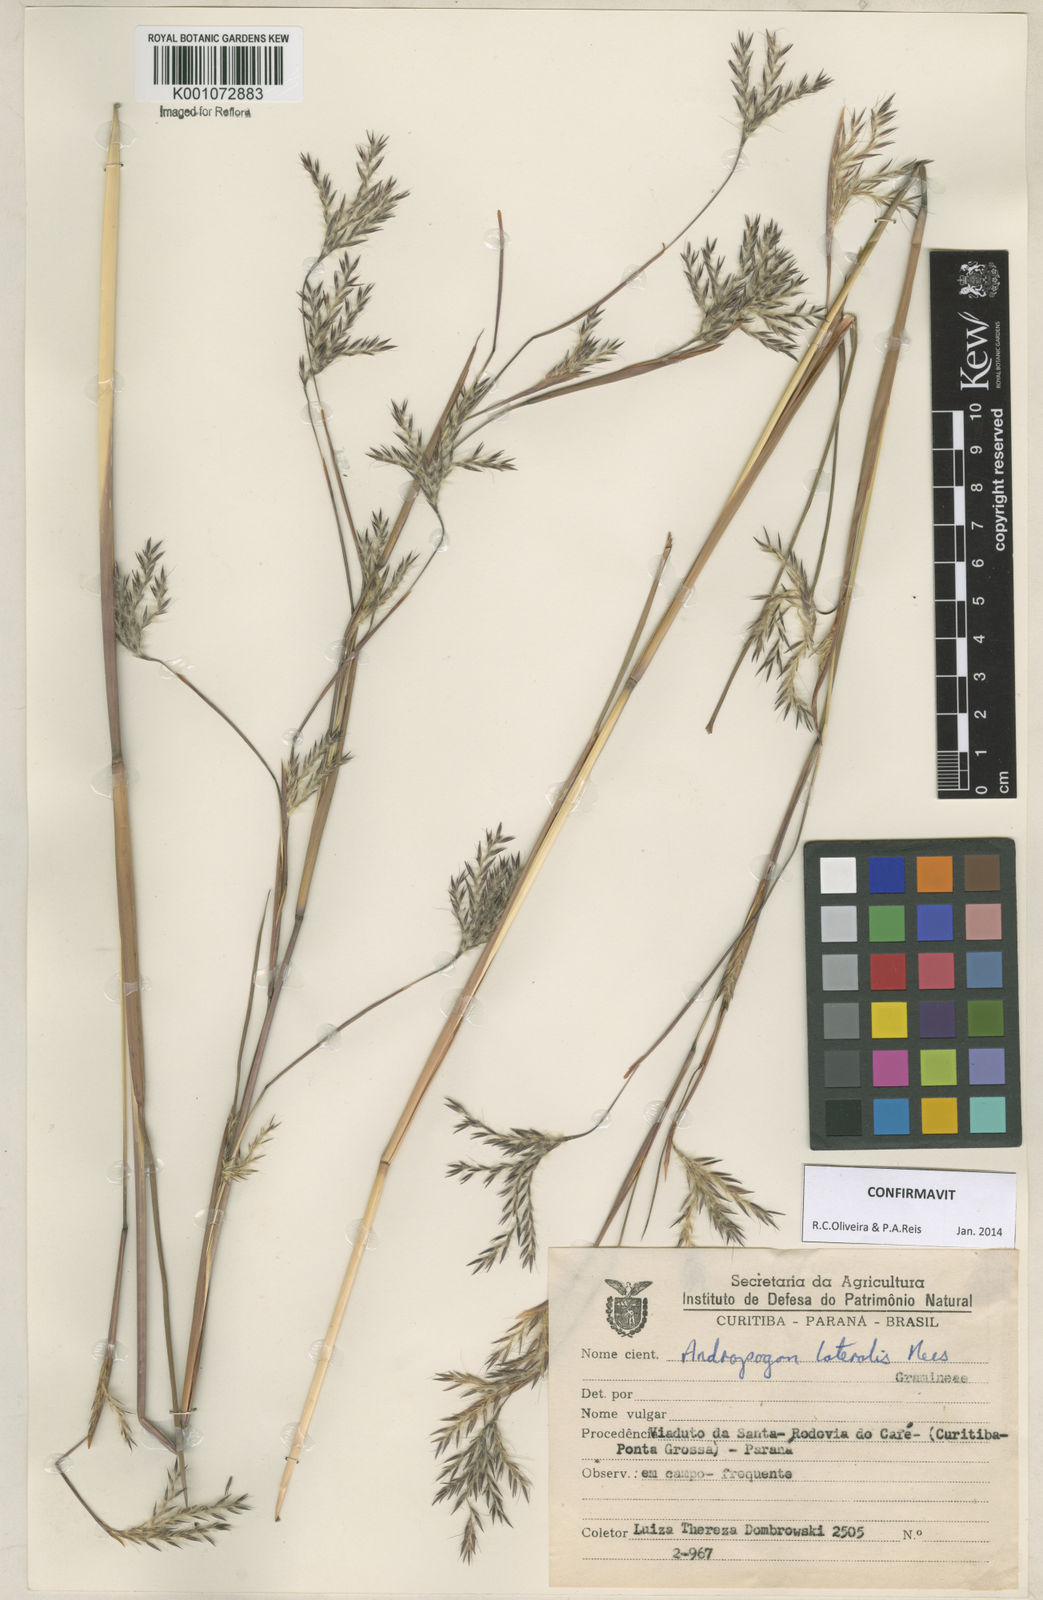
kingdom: Plantae
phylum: Tracheophyta
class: Liliopsida
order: Poales
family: Poaceae
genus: Andropogon
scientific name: Andropogon lateralis
